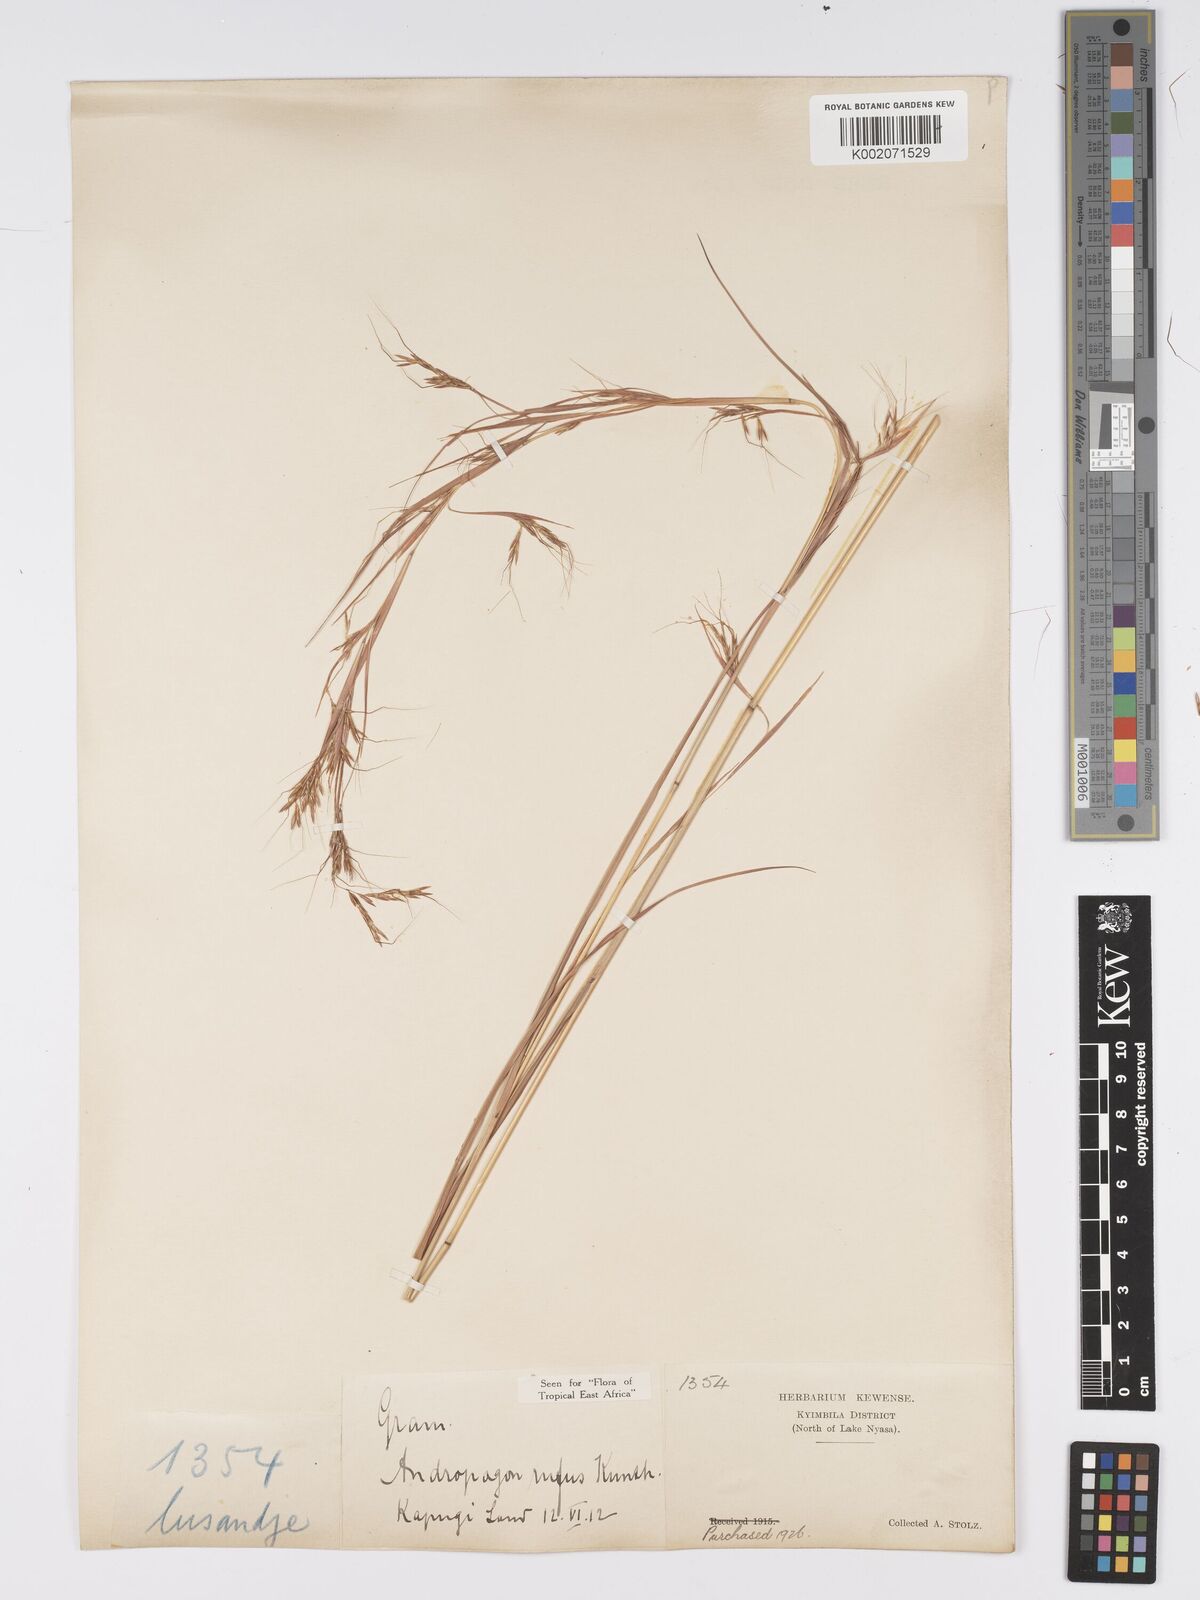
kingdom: Plantae
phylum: Tracheophyta
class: Liliopsida
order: Poales
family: Poaceae
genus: Hyparrhenia
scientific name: Hyparrhenia rufa
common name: Jaraguagrass
